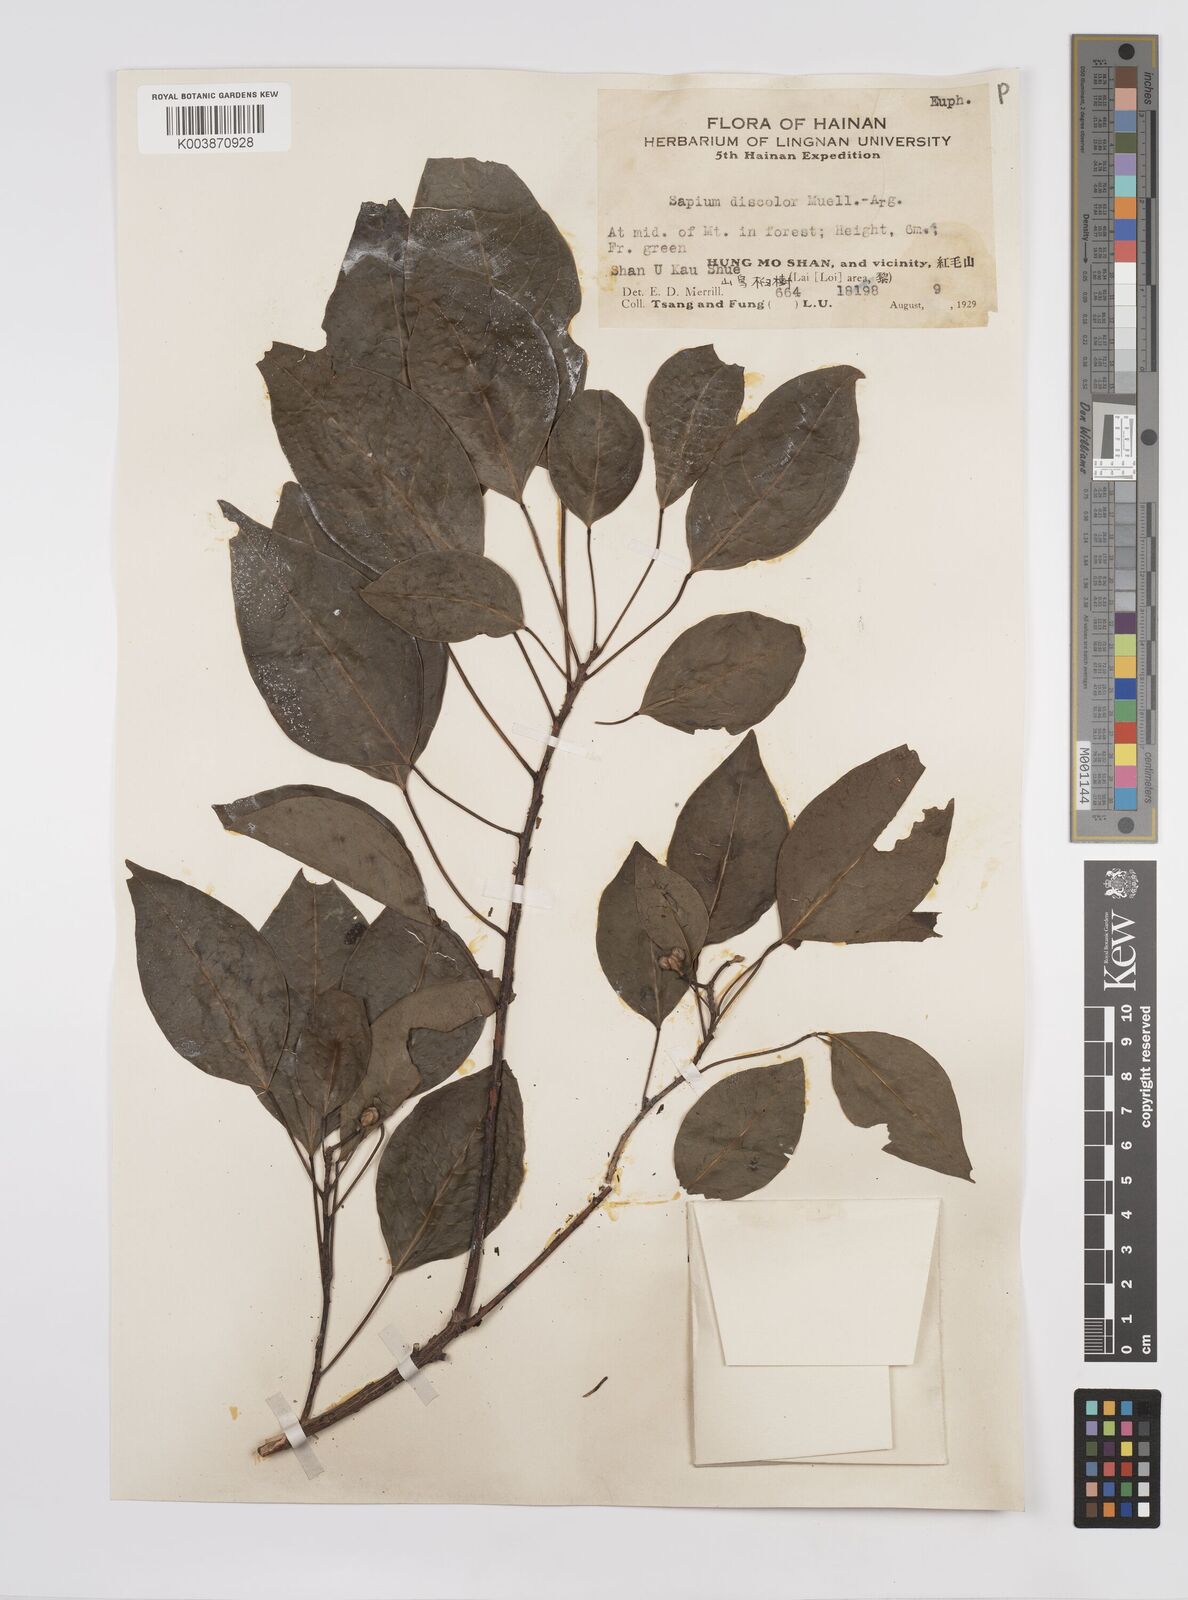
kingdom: Plantae
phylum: Tracheophyta
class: Magnoliopsida
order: Malpighiales
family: Euphorbiaceae
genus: Triadica
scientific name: Triadica cochinchinensis
